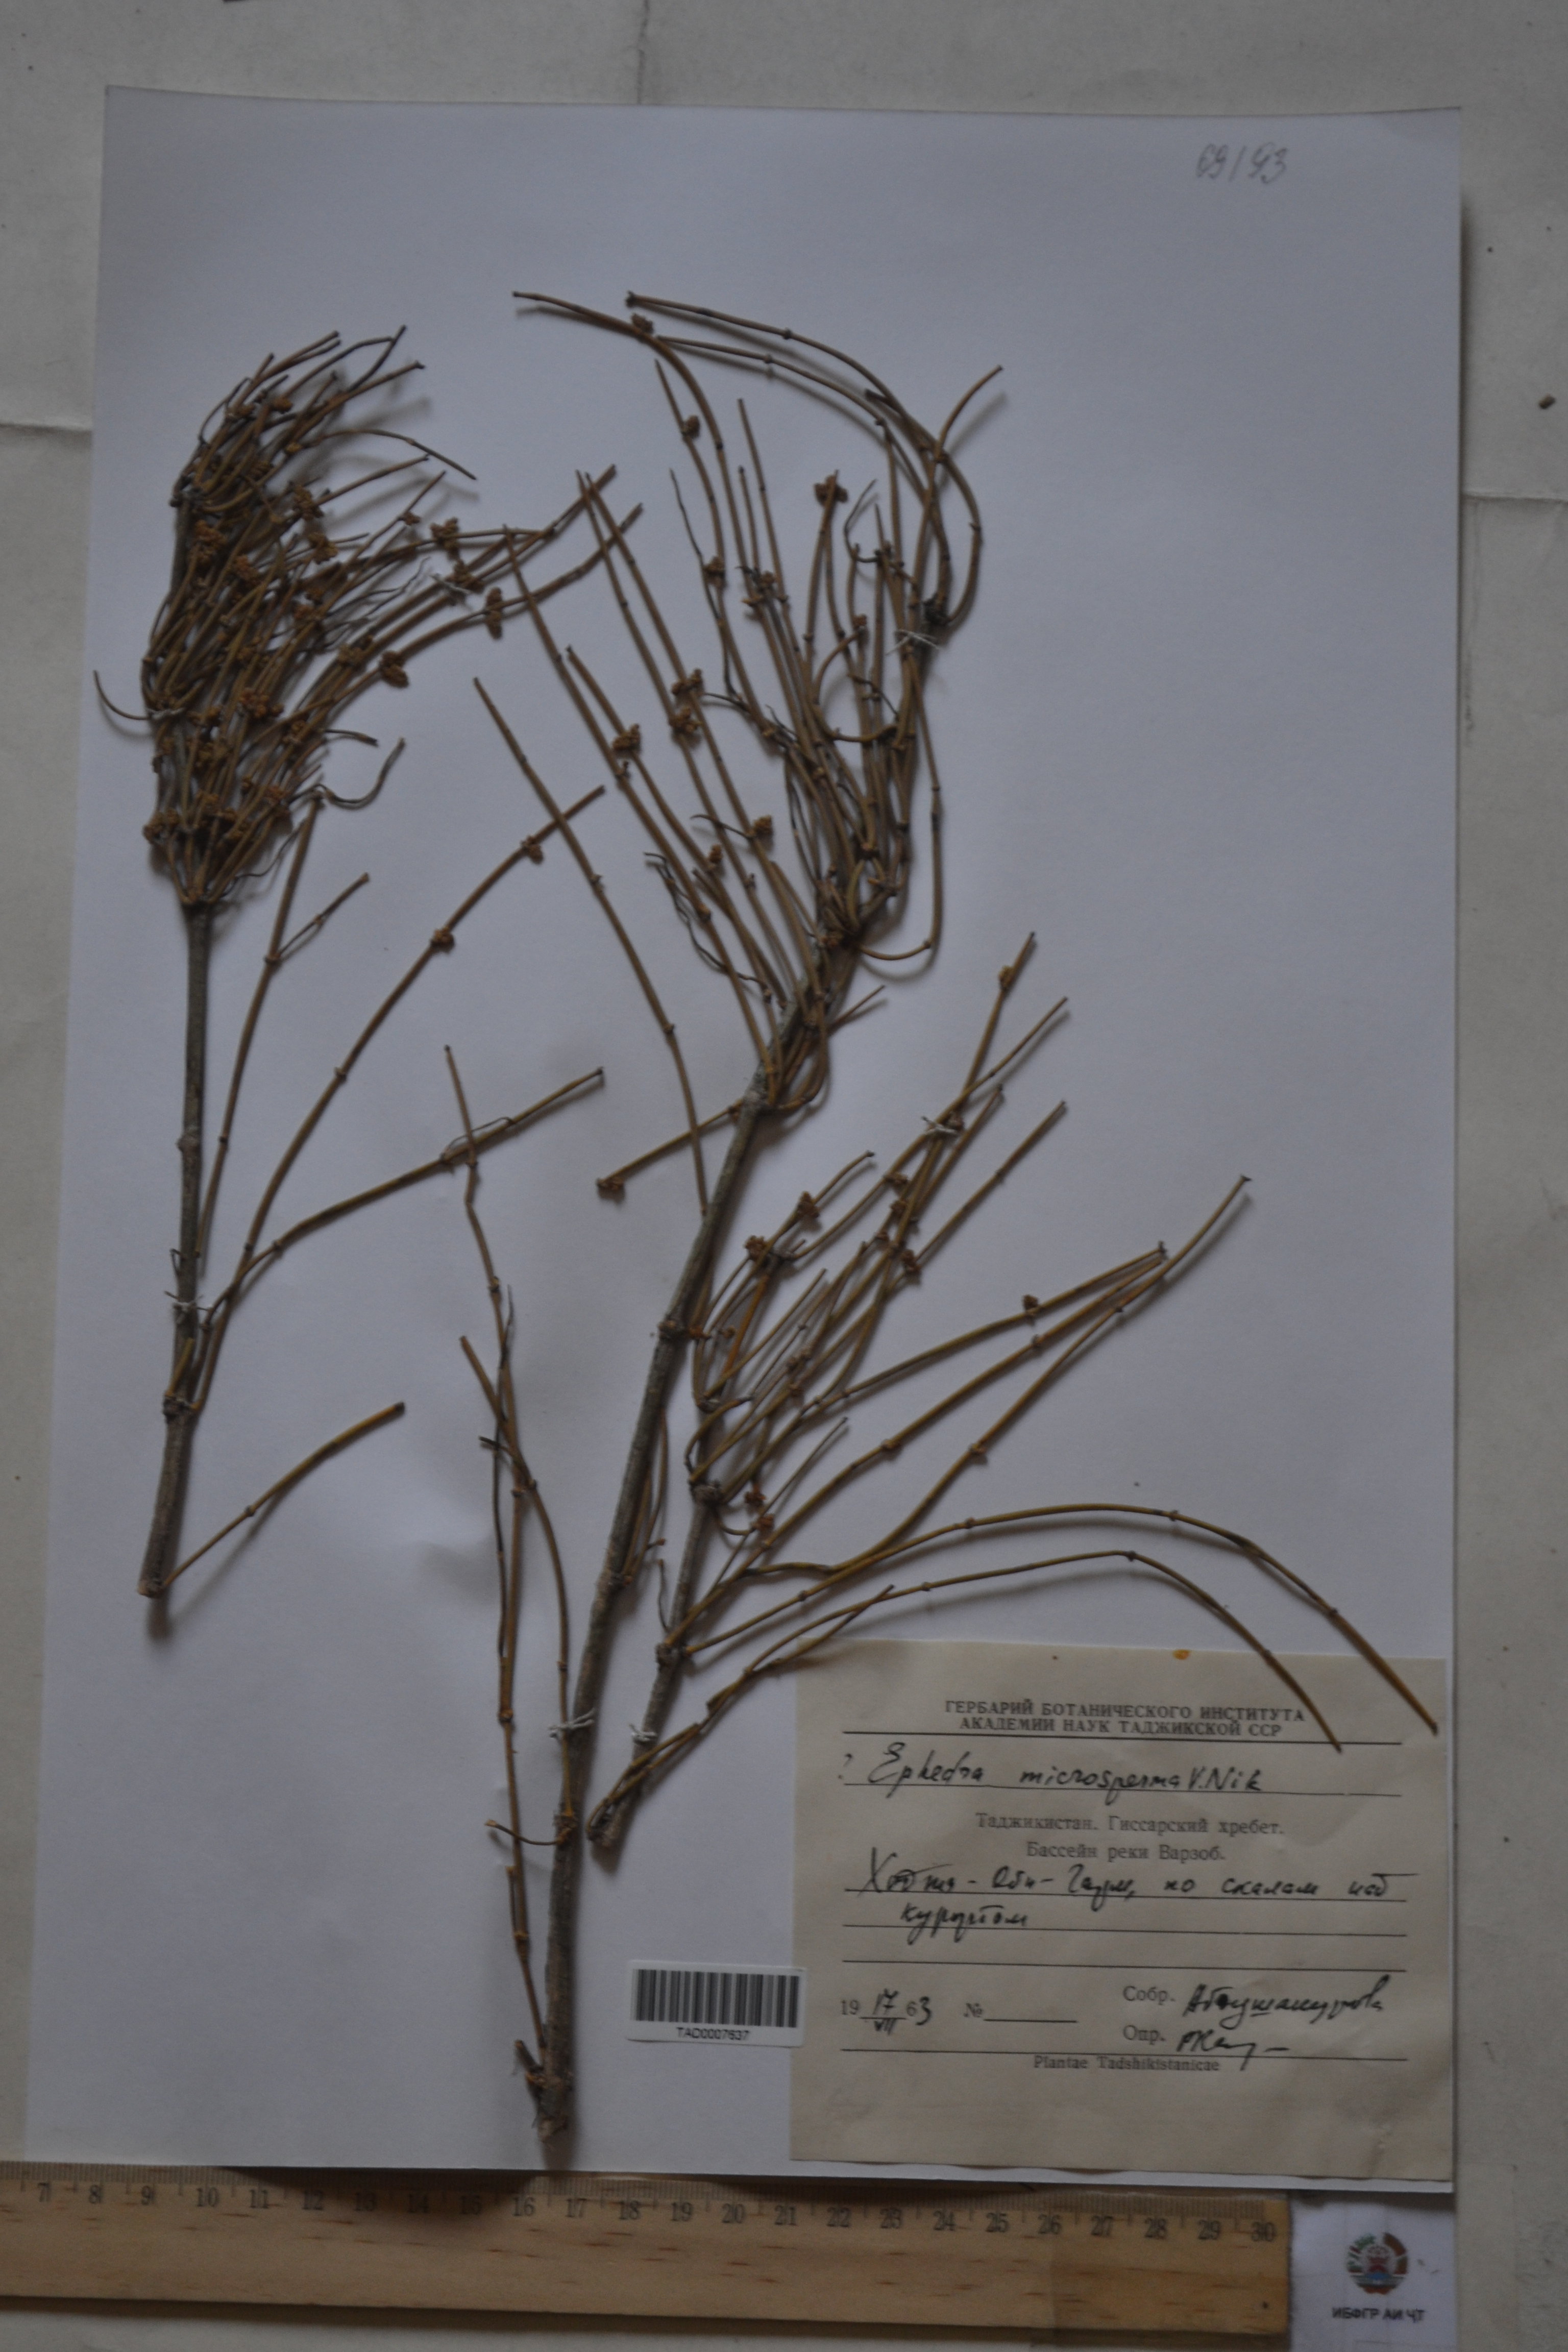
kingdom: Plantae
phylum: Tracheophyta
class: Gnetopsida
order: Ephedrales
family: Ephedraceae
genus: Ephedra
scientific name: Ephedra intermedia
